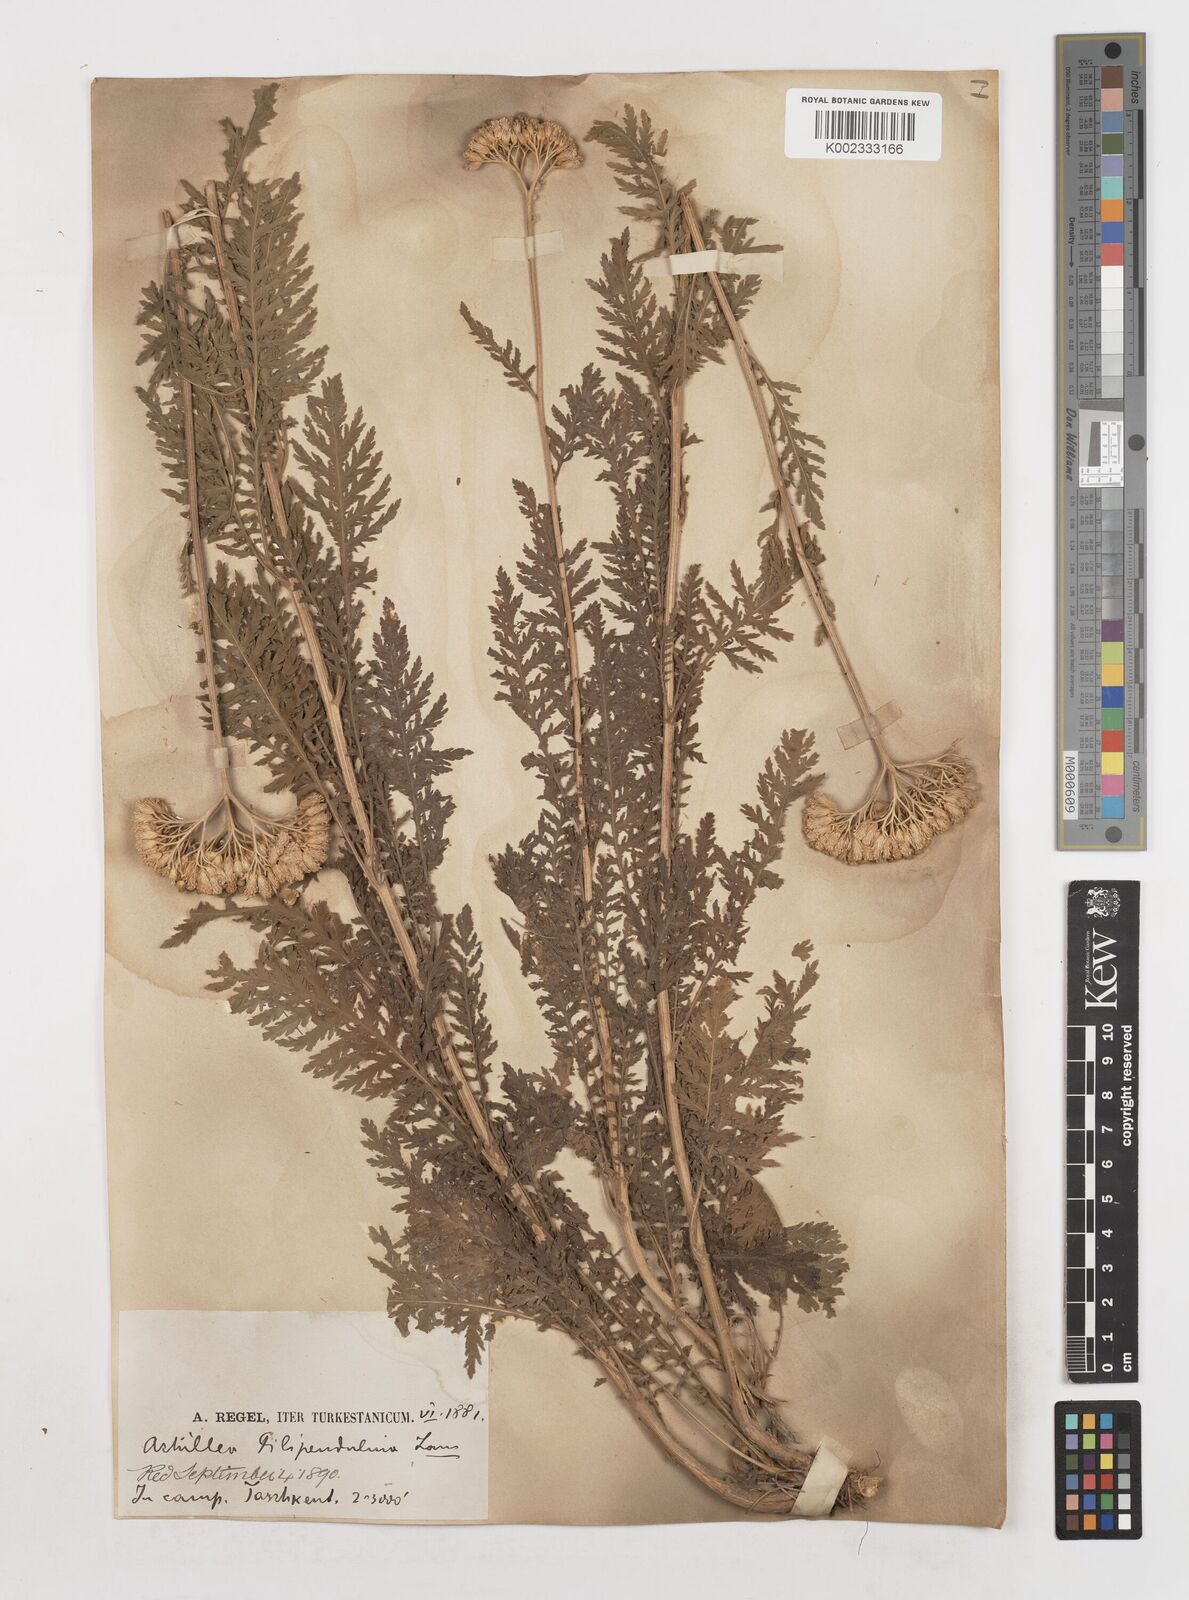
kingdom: Plantae
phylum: Tracheophyta
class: Magnoliopsida
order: Asterales
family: Asteraceae
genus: Achillea
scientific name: Achillea filipendulina
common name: Fernleaf yarrow
